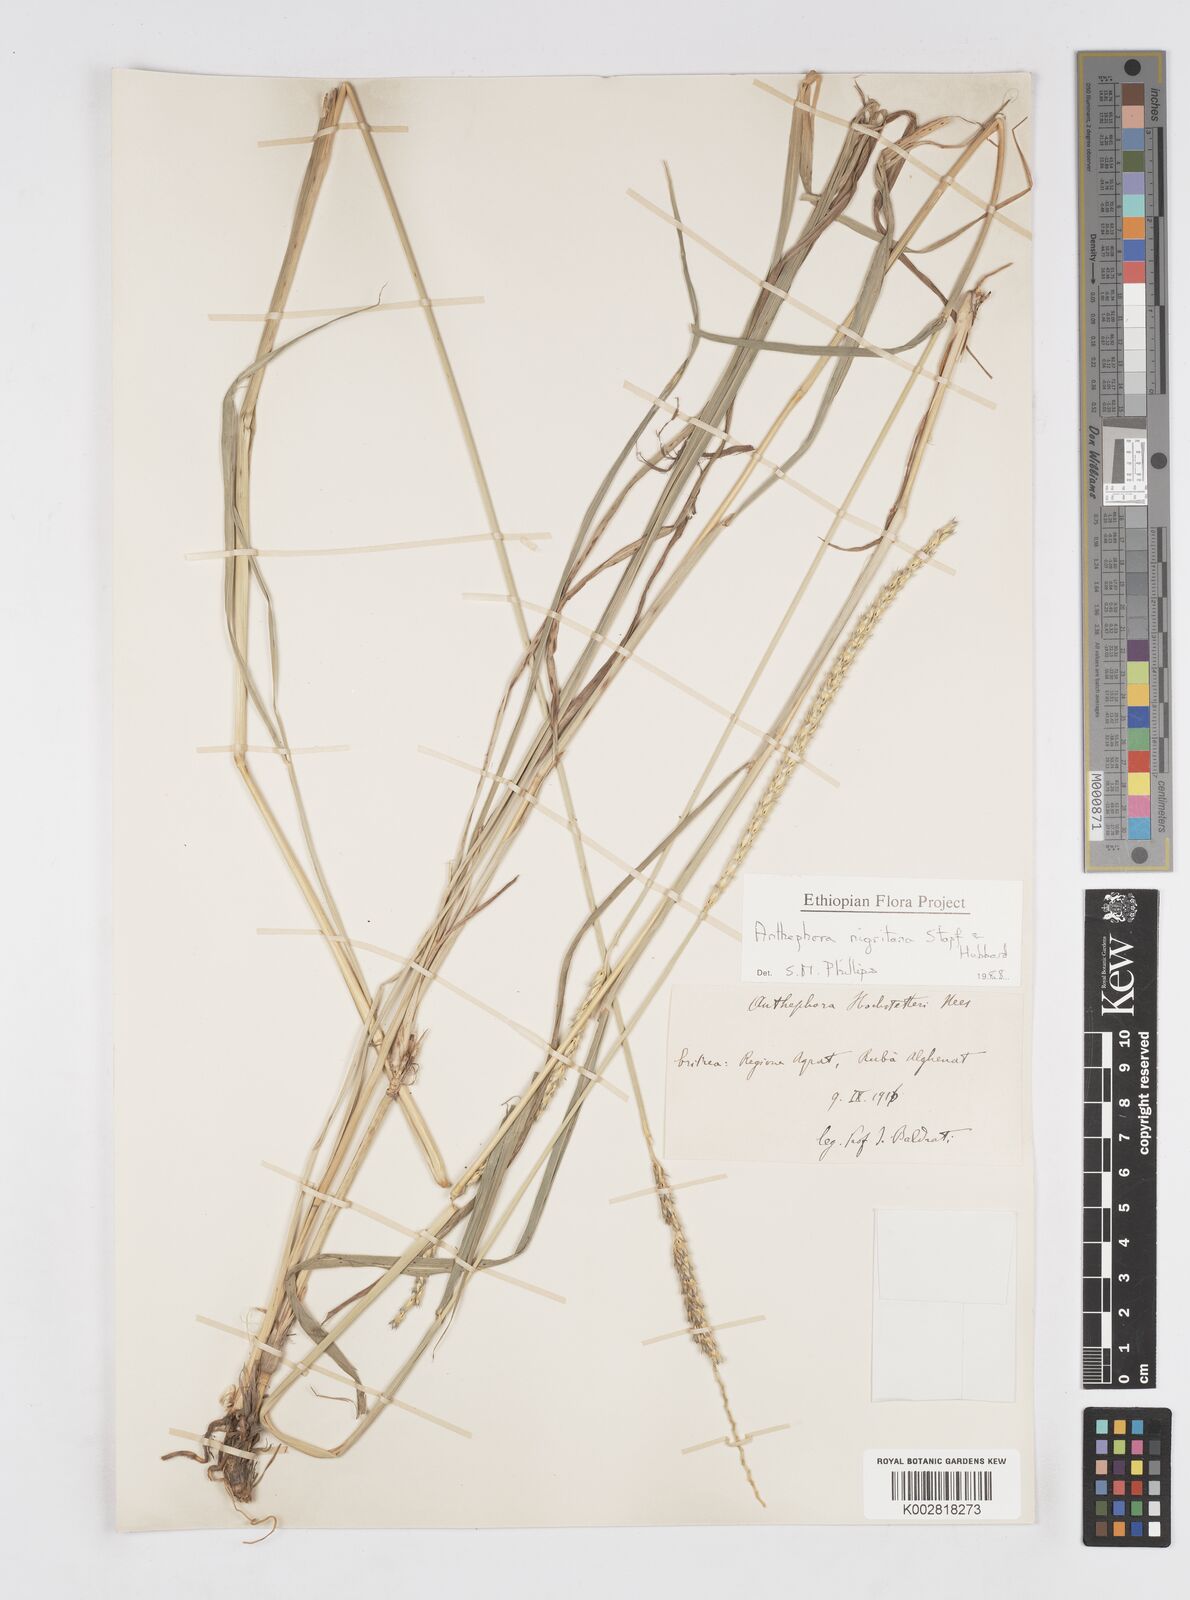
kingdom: Plantae
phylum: Tracheophyta
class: Liliopsida
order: Poales
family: Poaceae
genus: Anthephora
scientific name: Anthephora nigritana
